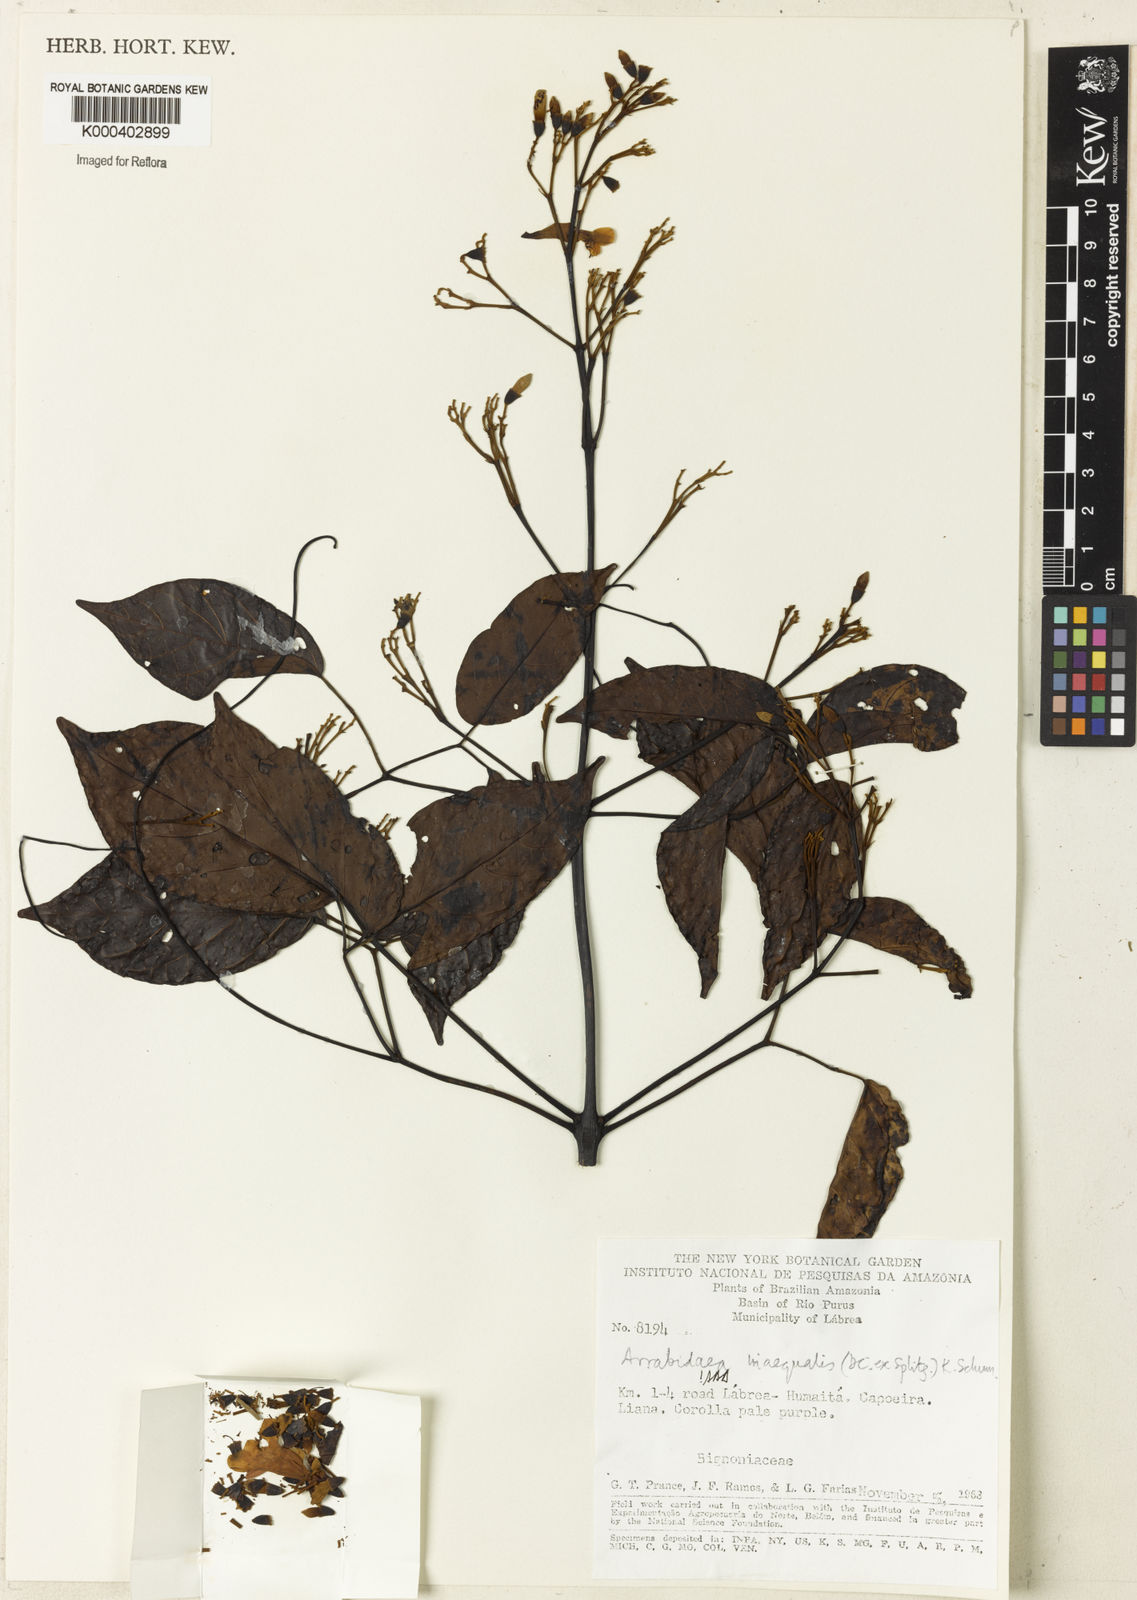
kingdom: Plantae
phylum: Tracheophyta
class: Magnoliopsida
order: Lamiales
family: Bignoniaceae
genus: Cuspidaria
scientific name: Cuspidaria inaequalis
